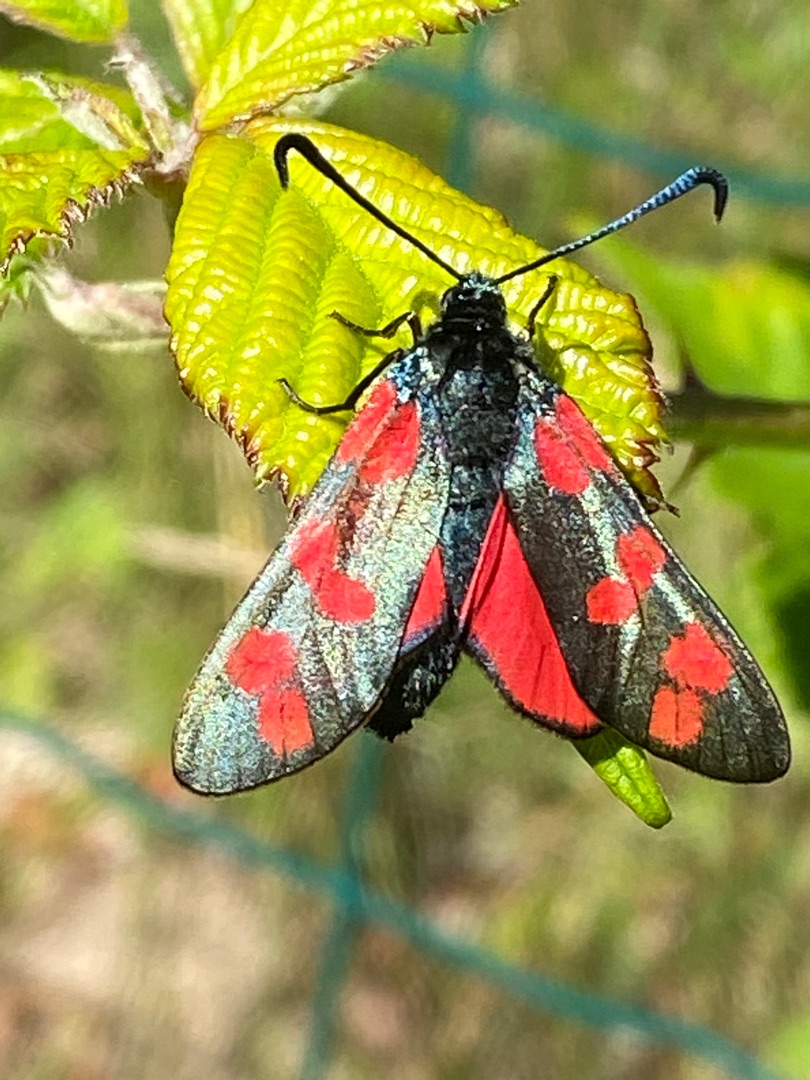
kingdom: Animalia
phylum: Arthropoda
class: Insecta
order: Lepidoptera
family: Zygaenidae
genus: Zygaena
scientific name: Zygaena filipendulae
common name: Seksplettet køllesværmer
